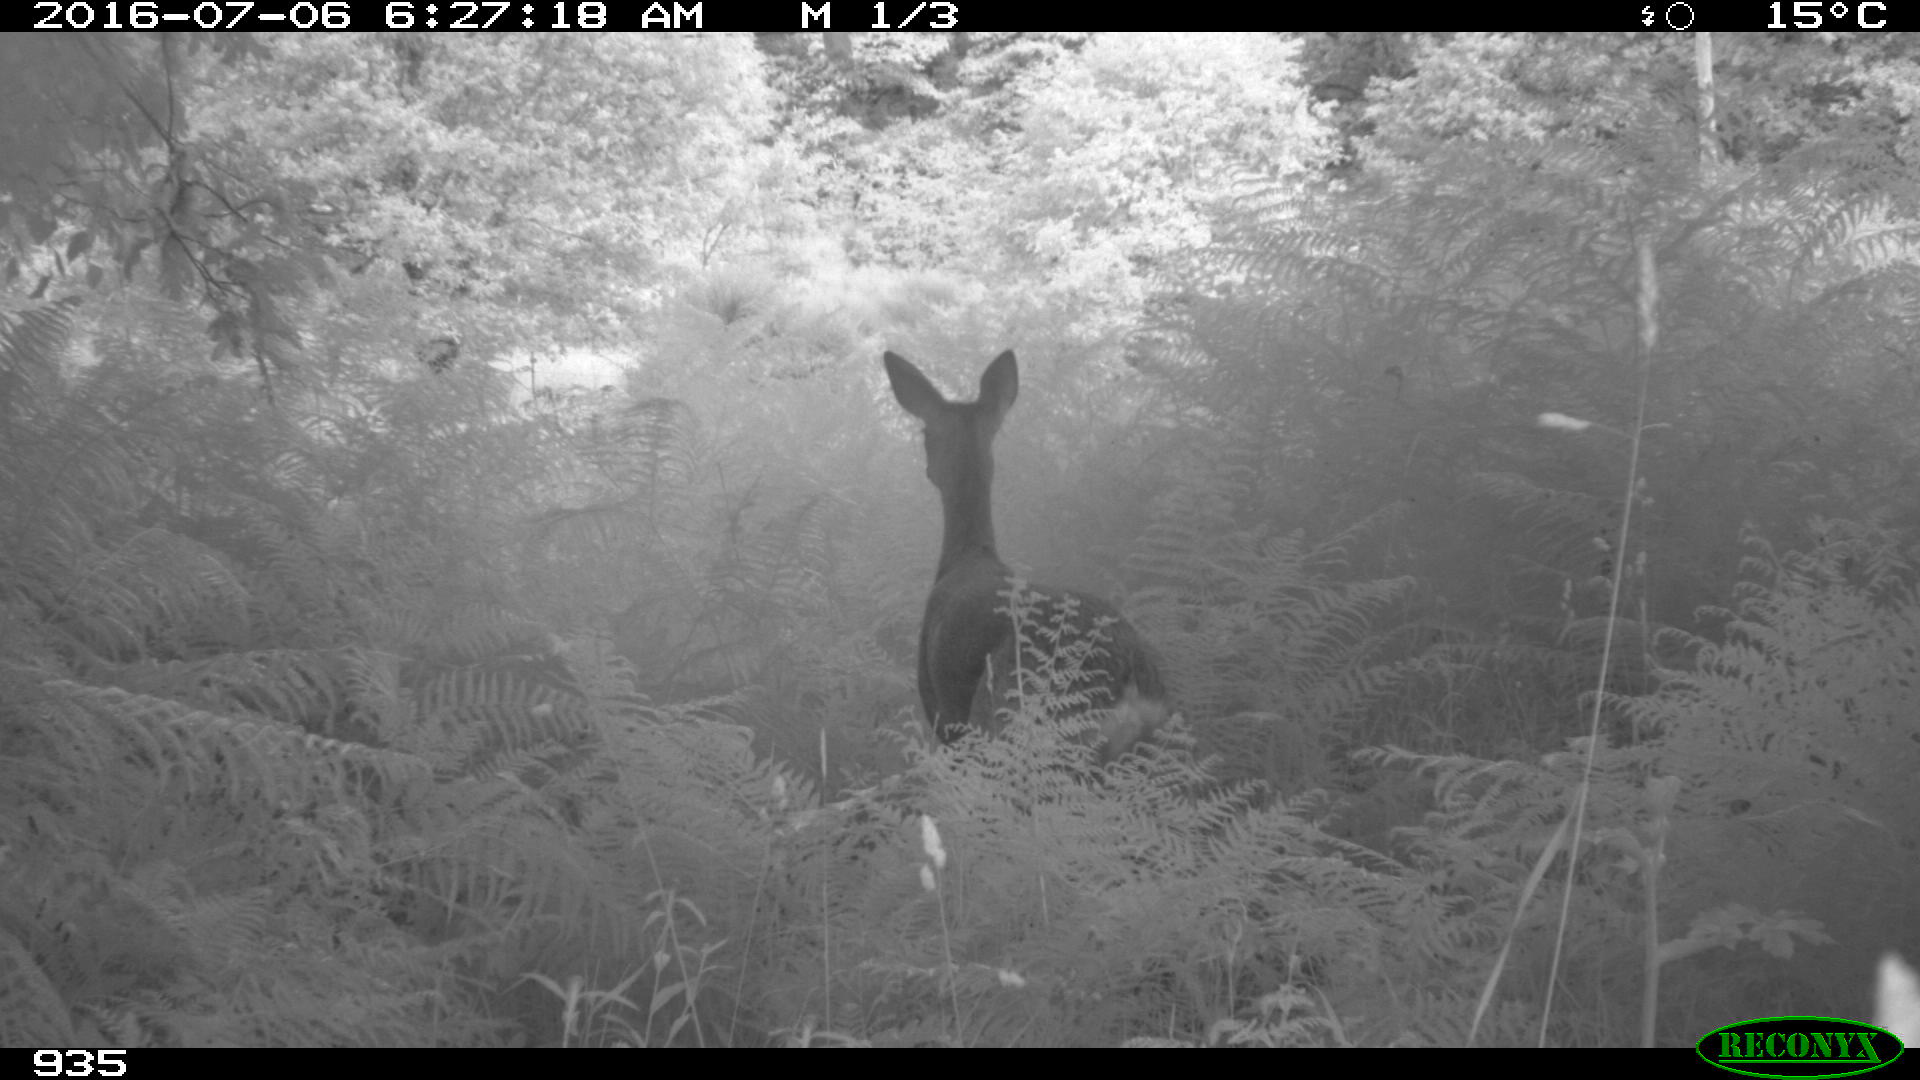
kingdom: Animalia
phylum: Chordata
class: Mammalia
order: Artiodactyla
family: Cervidae
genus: Capreolus
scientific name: Capreolus capreolus
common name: Western roe deer
